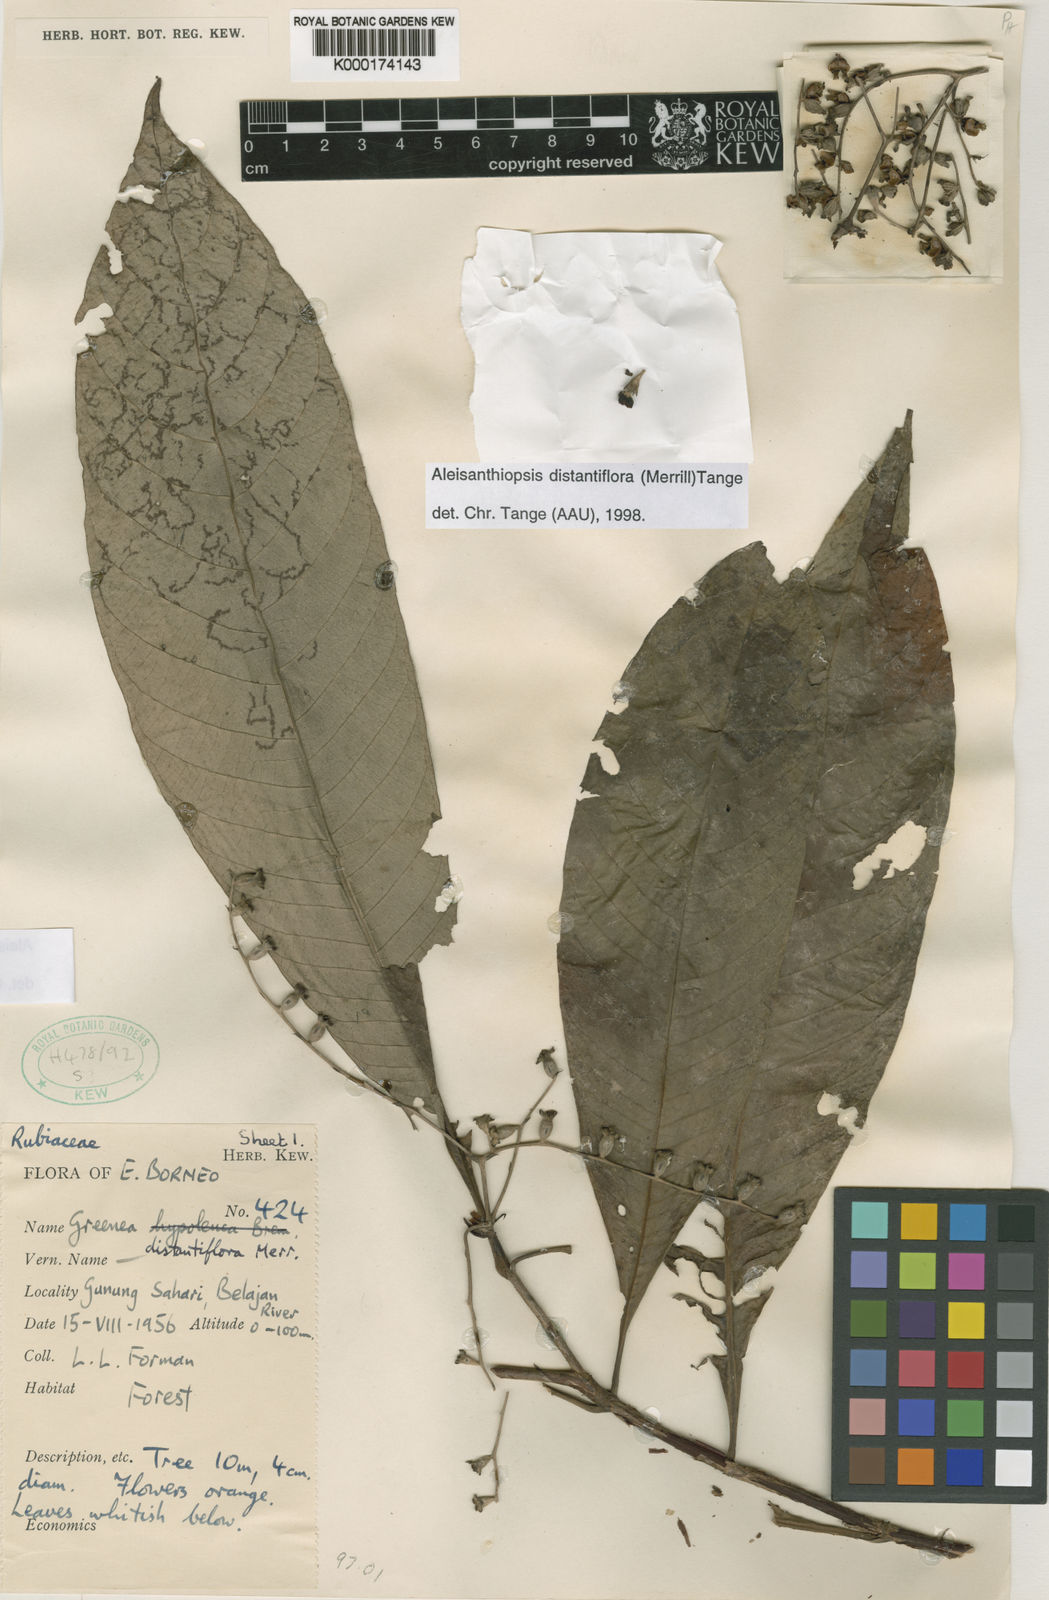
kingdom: Plantae
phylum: Tracheophyta
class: Magnoliopsida
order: Gentianales
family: Rubiaceae
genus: Aleisanthiopsis
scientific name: Aleisanthiopsis distantiflora
